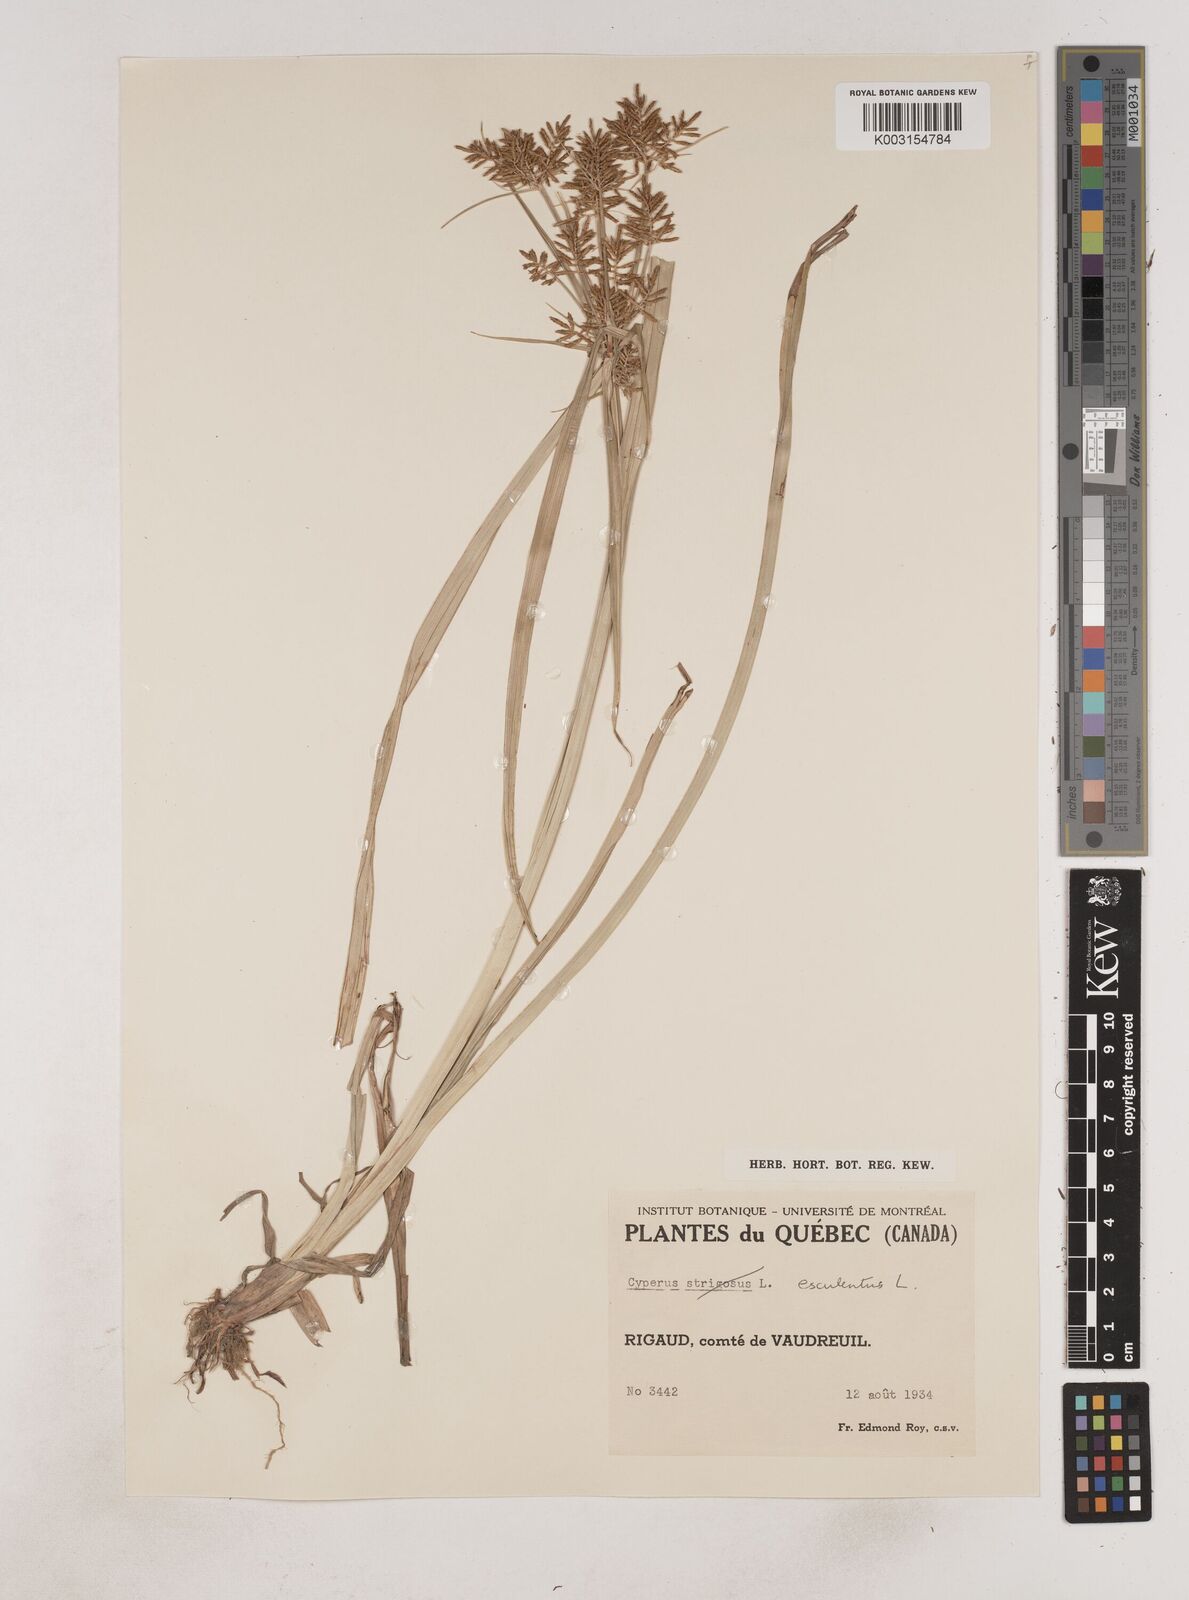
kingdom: Plantae
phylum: Tracheophyta
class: Liliopsida
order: Poales
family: Cyperaceae
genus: Cyperus
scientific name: Cyperus esculentus
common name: Yellow nutsedge
